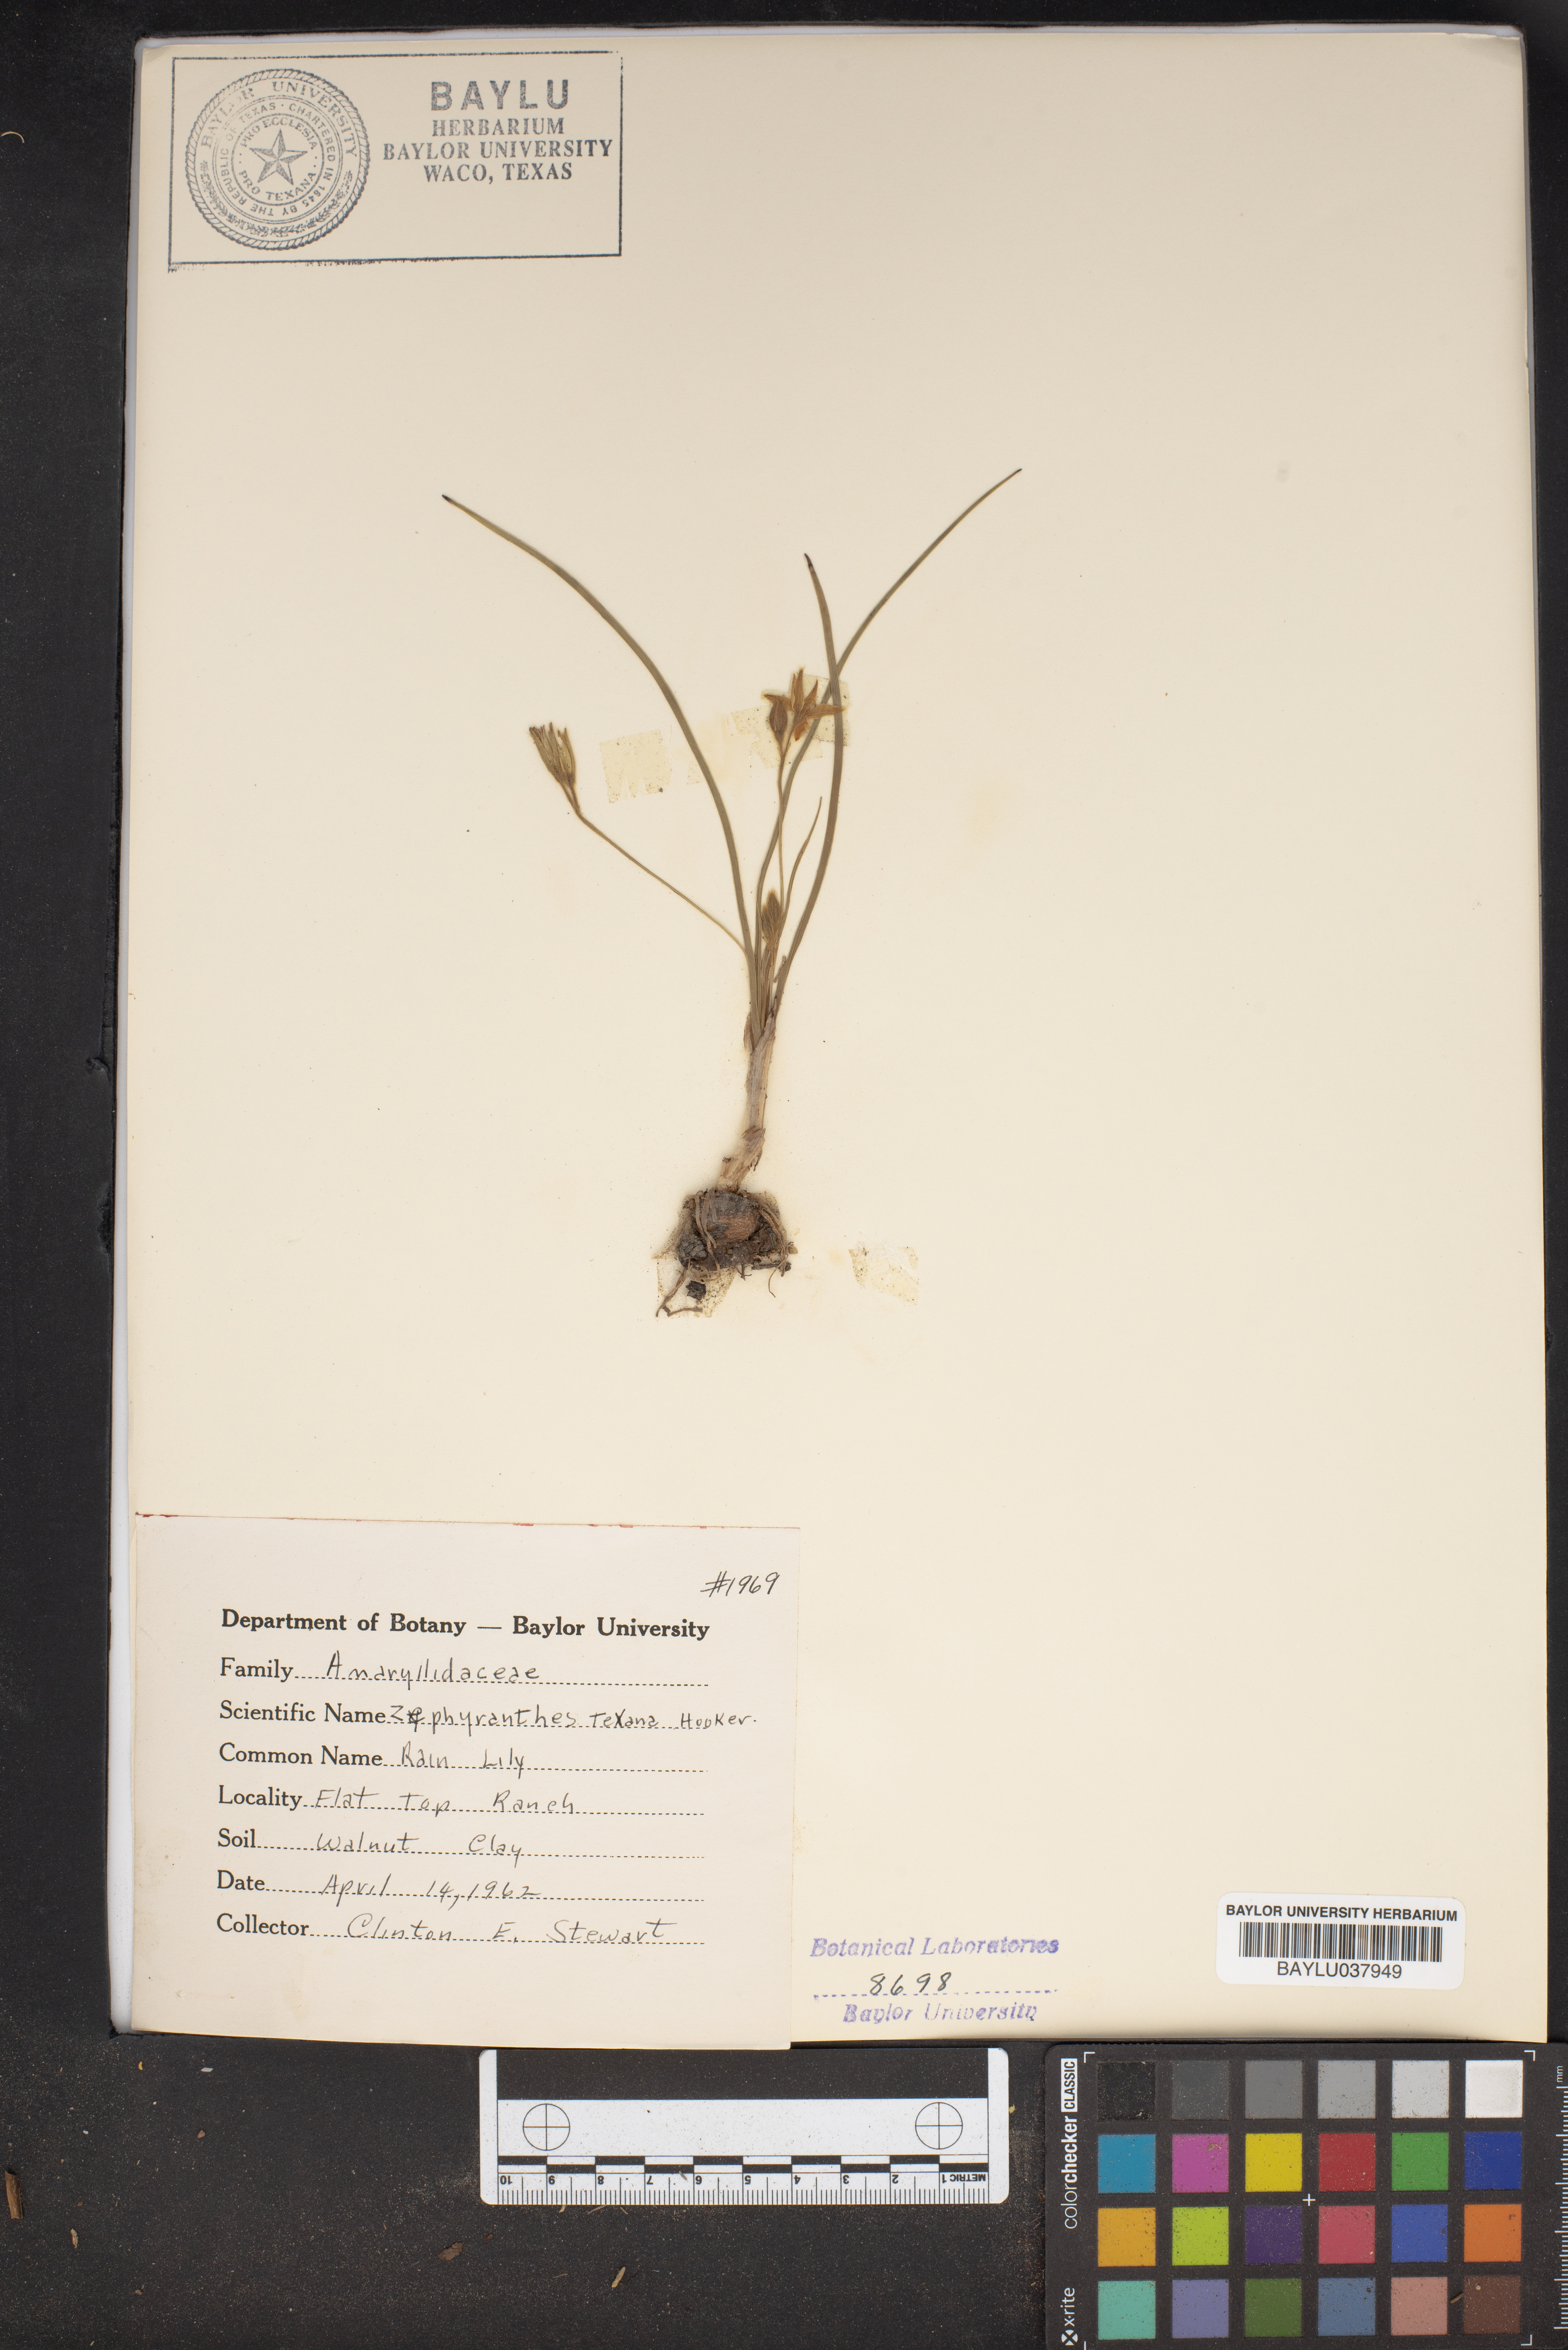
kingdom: Plantae
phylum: Tracheophyta
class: Liliopsida
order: Asparagales
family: Amaryllidaceae
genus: Zephyranthes
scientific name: Zephyranthes tubispatha
